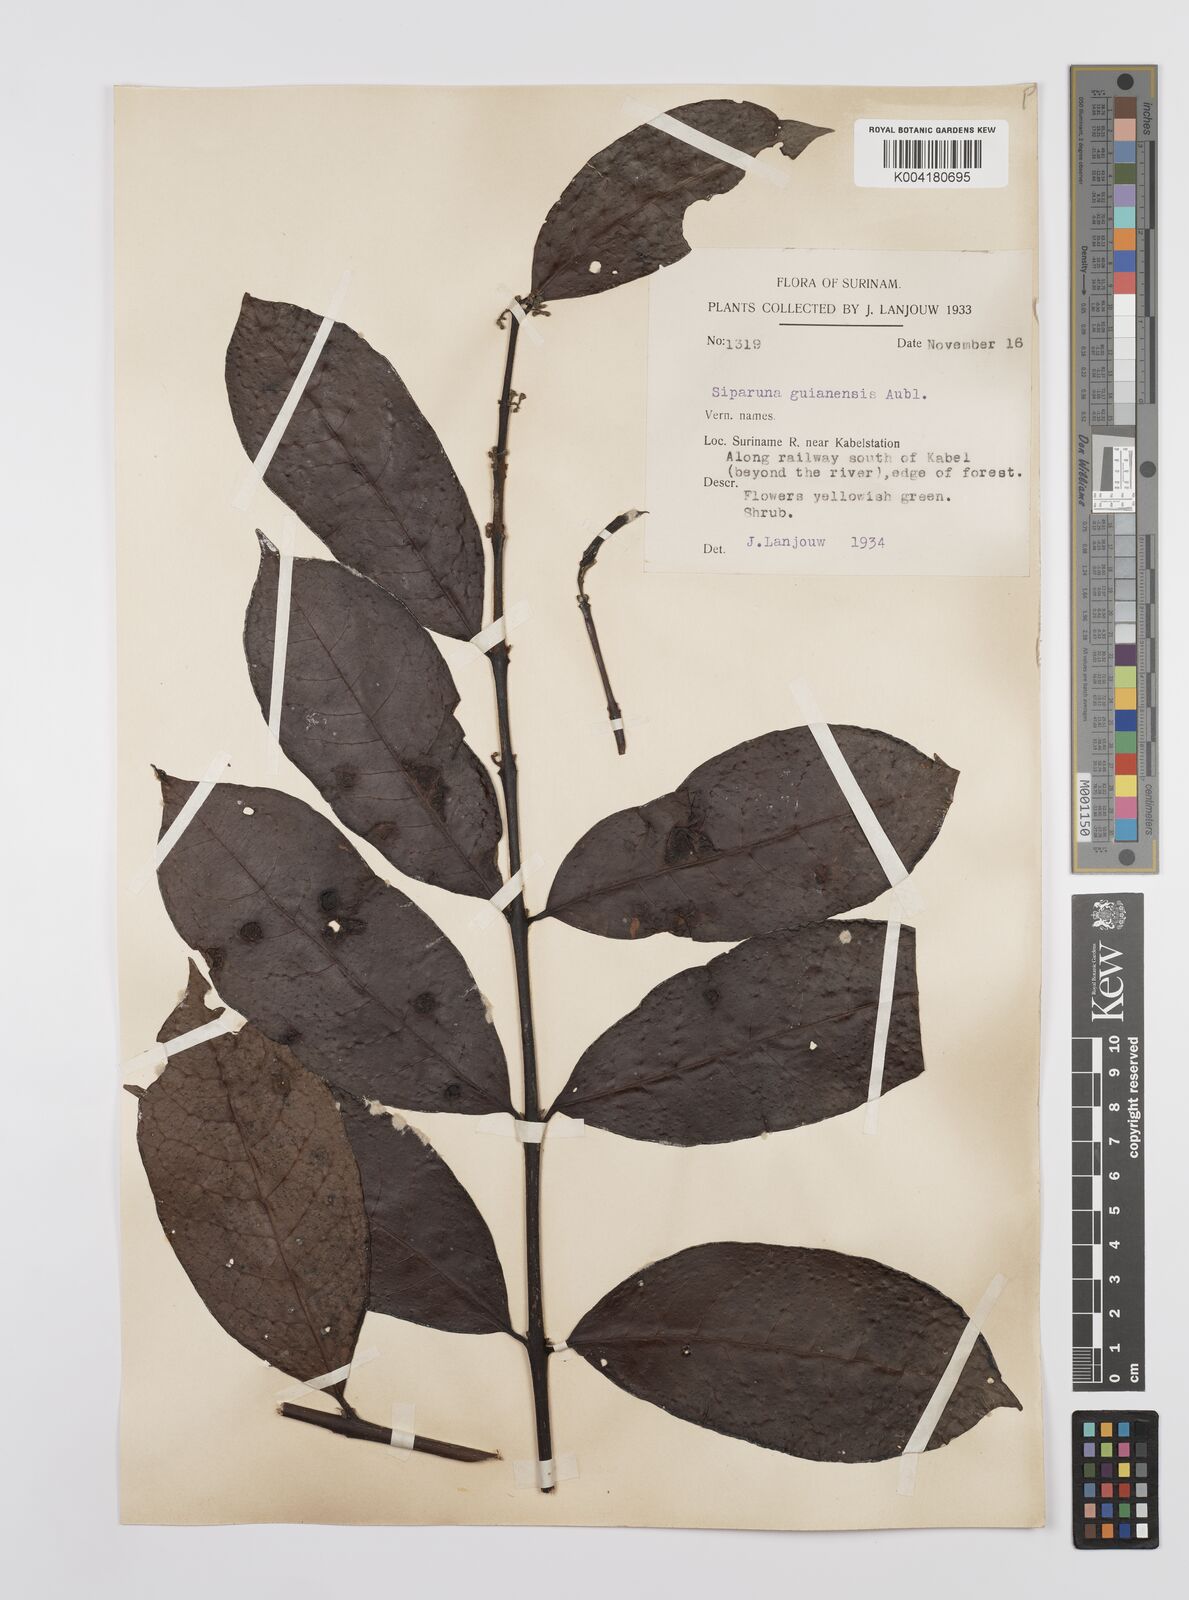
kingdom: Plantae
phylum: Tracheophyta
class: Magnoliopsida
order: Laurales
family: Siparunaceae
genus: Siparuna
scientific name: Siparuna guianensis
